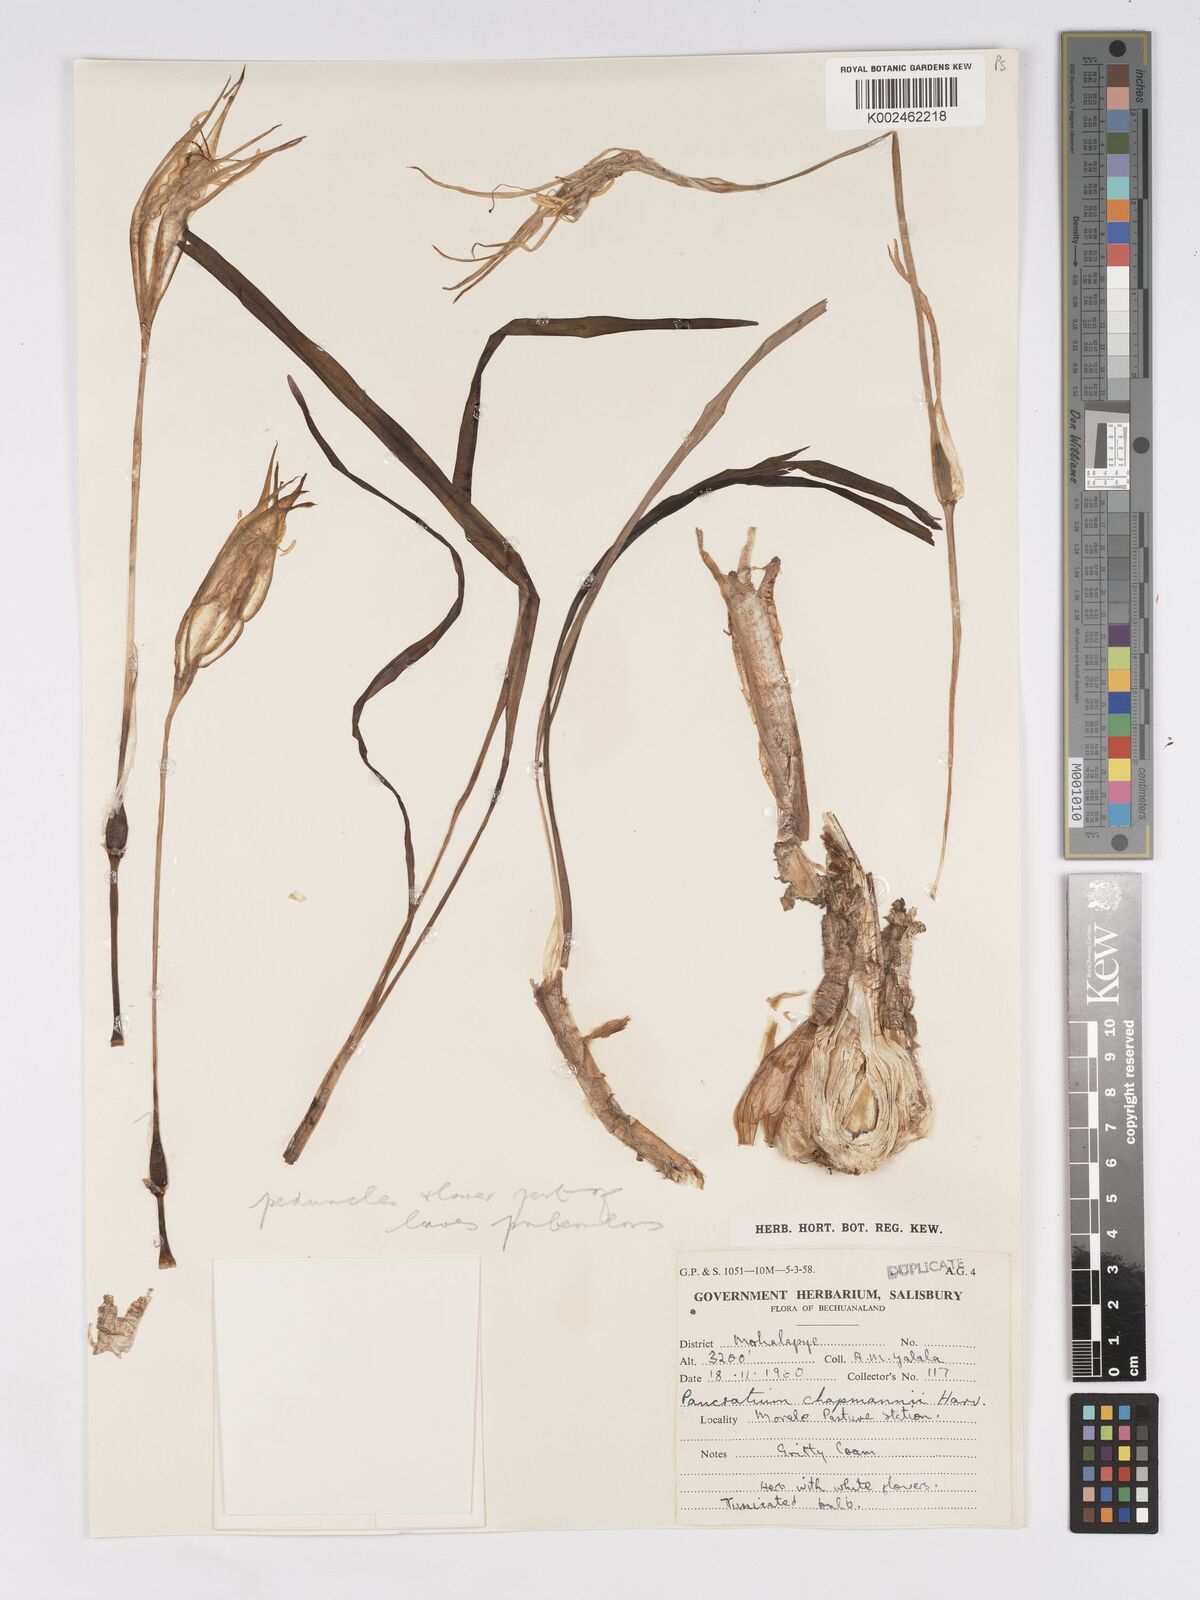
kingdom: Plantae
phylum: Tracheophyta
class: Liliopsida
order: Asparagales
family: Amaryllidaceae
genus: Pancratium
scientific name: Pancratium tenuifolium
